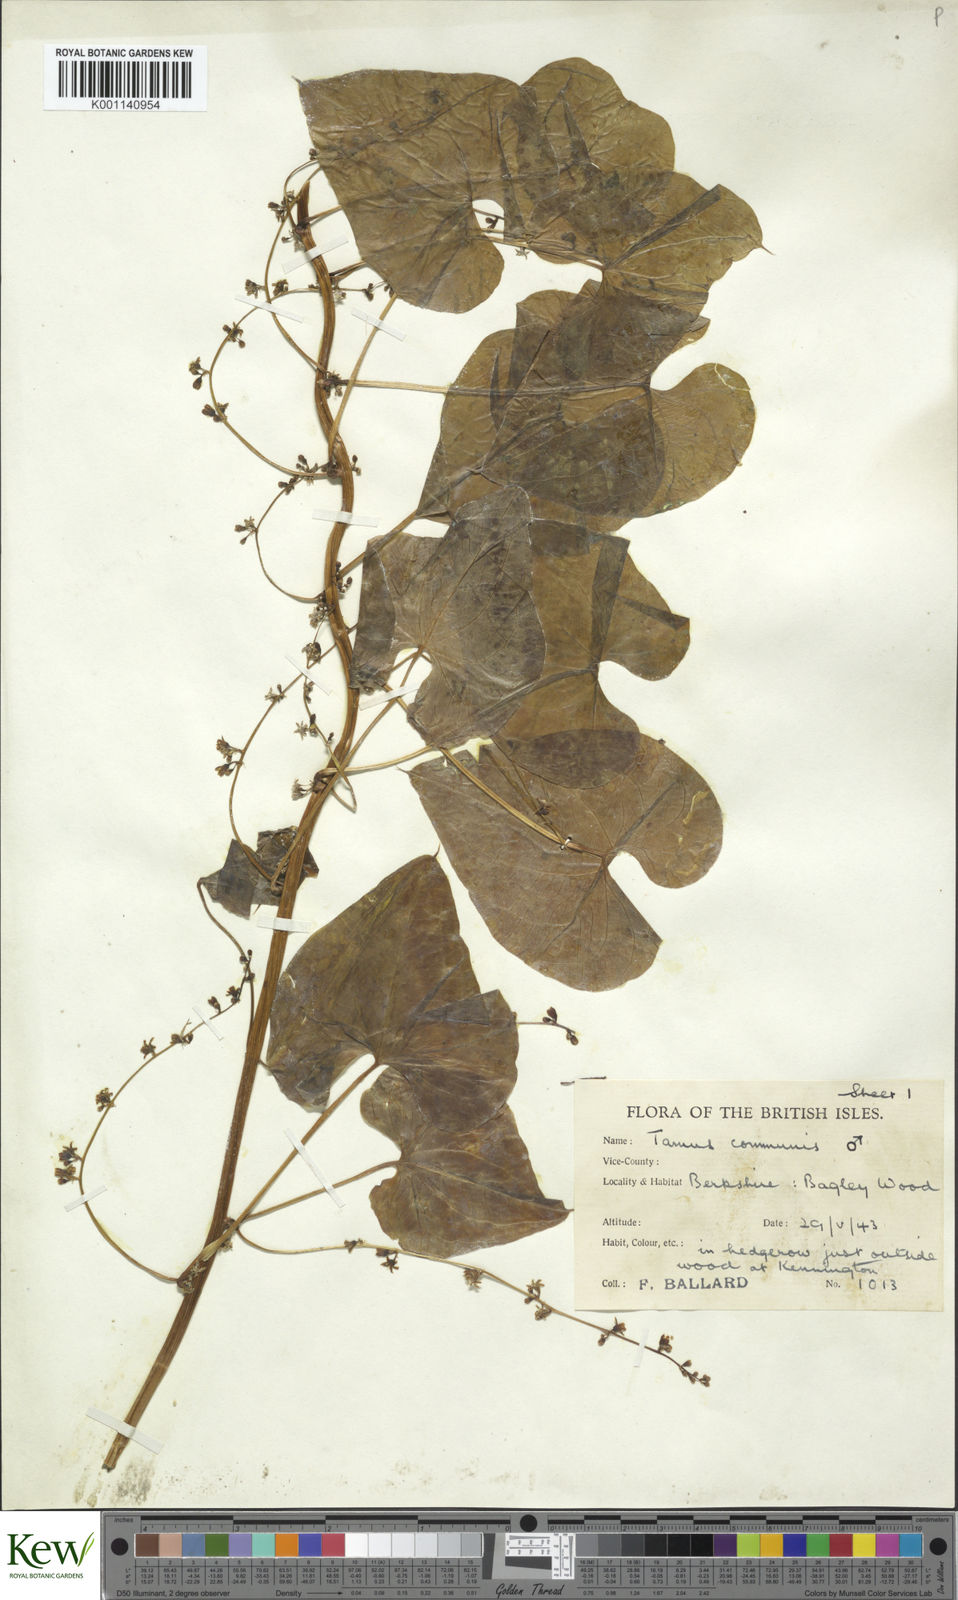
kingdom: Plantae
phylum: Tracheophyta
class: Liliopsida
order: Dioscoreales
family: Dioscoreaceae
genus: Dioscorea
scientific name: Dioscorea communis
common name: Black-bindweed
